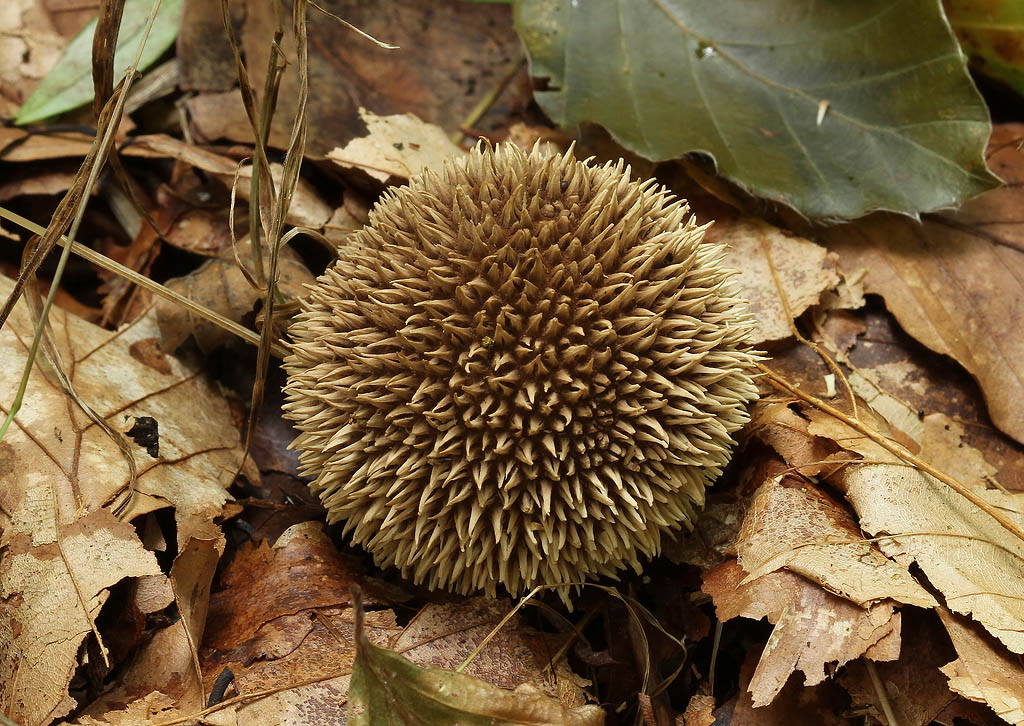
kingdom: Fungi
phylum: Basidiomycota
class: Agaricomycetes
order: Agaricales
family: Lycoperdaceae
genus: Lycoperdon
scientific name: Lycoperdon echinatum
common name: pindsvine-støvbold
